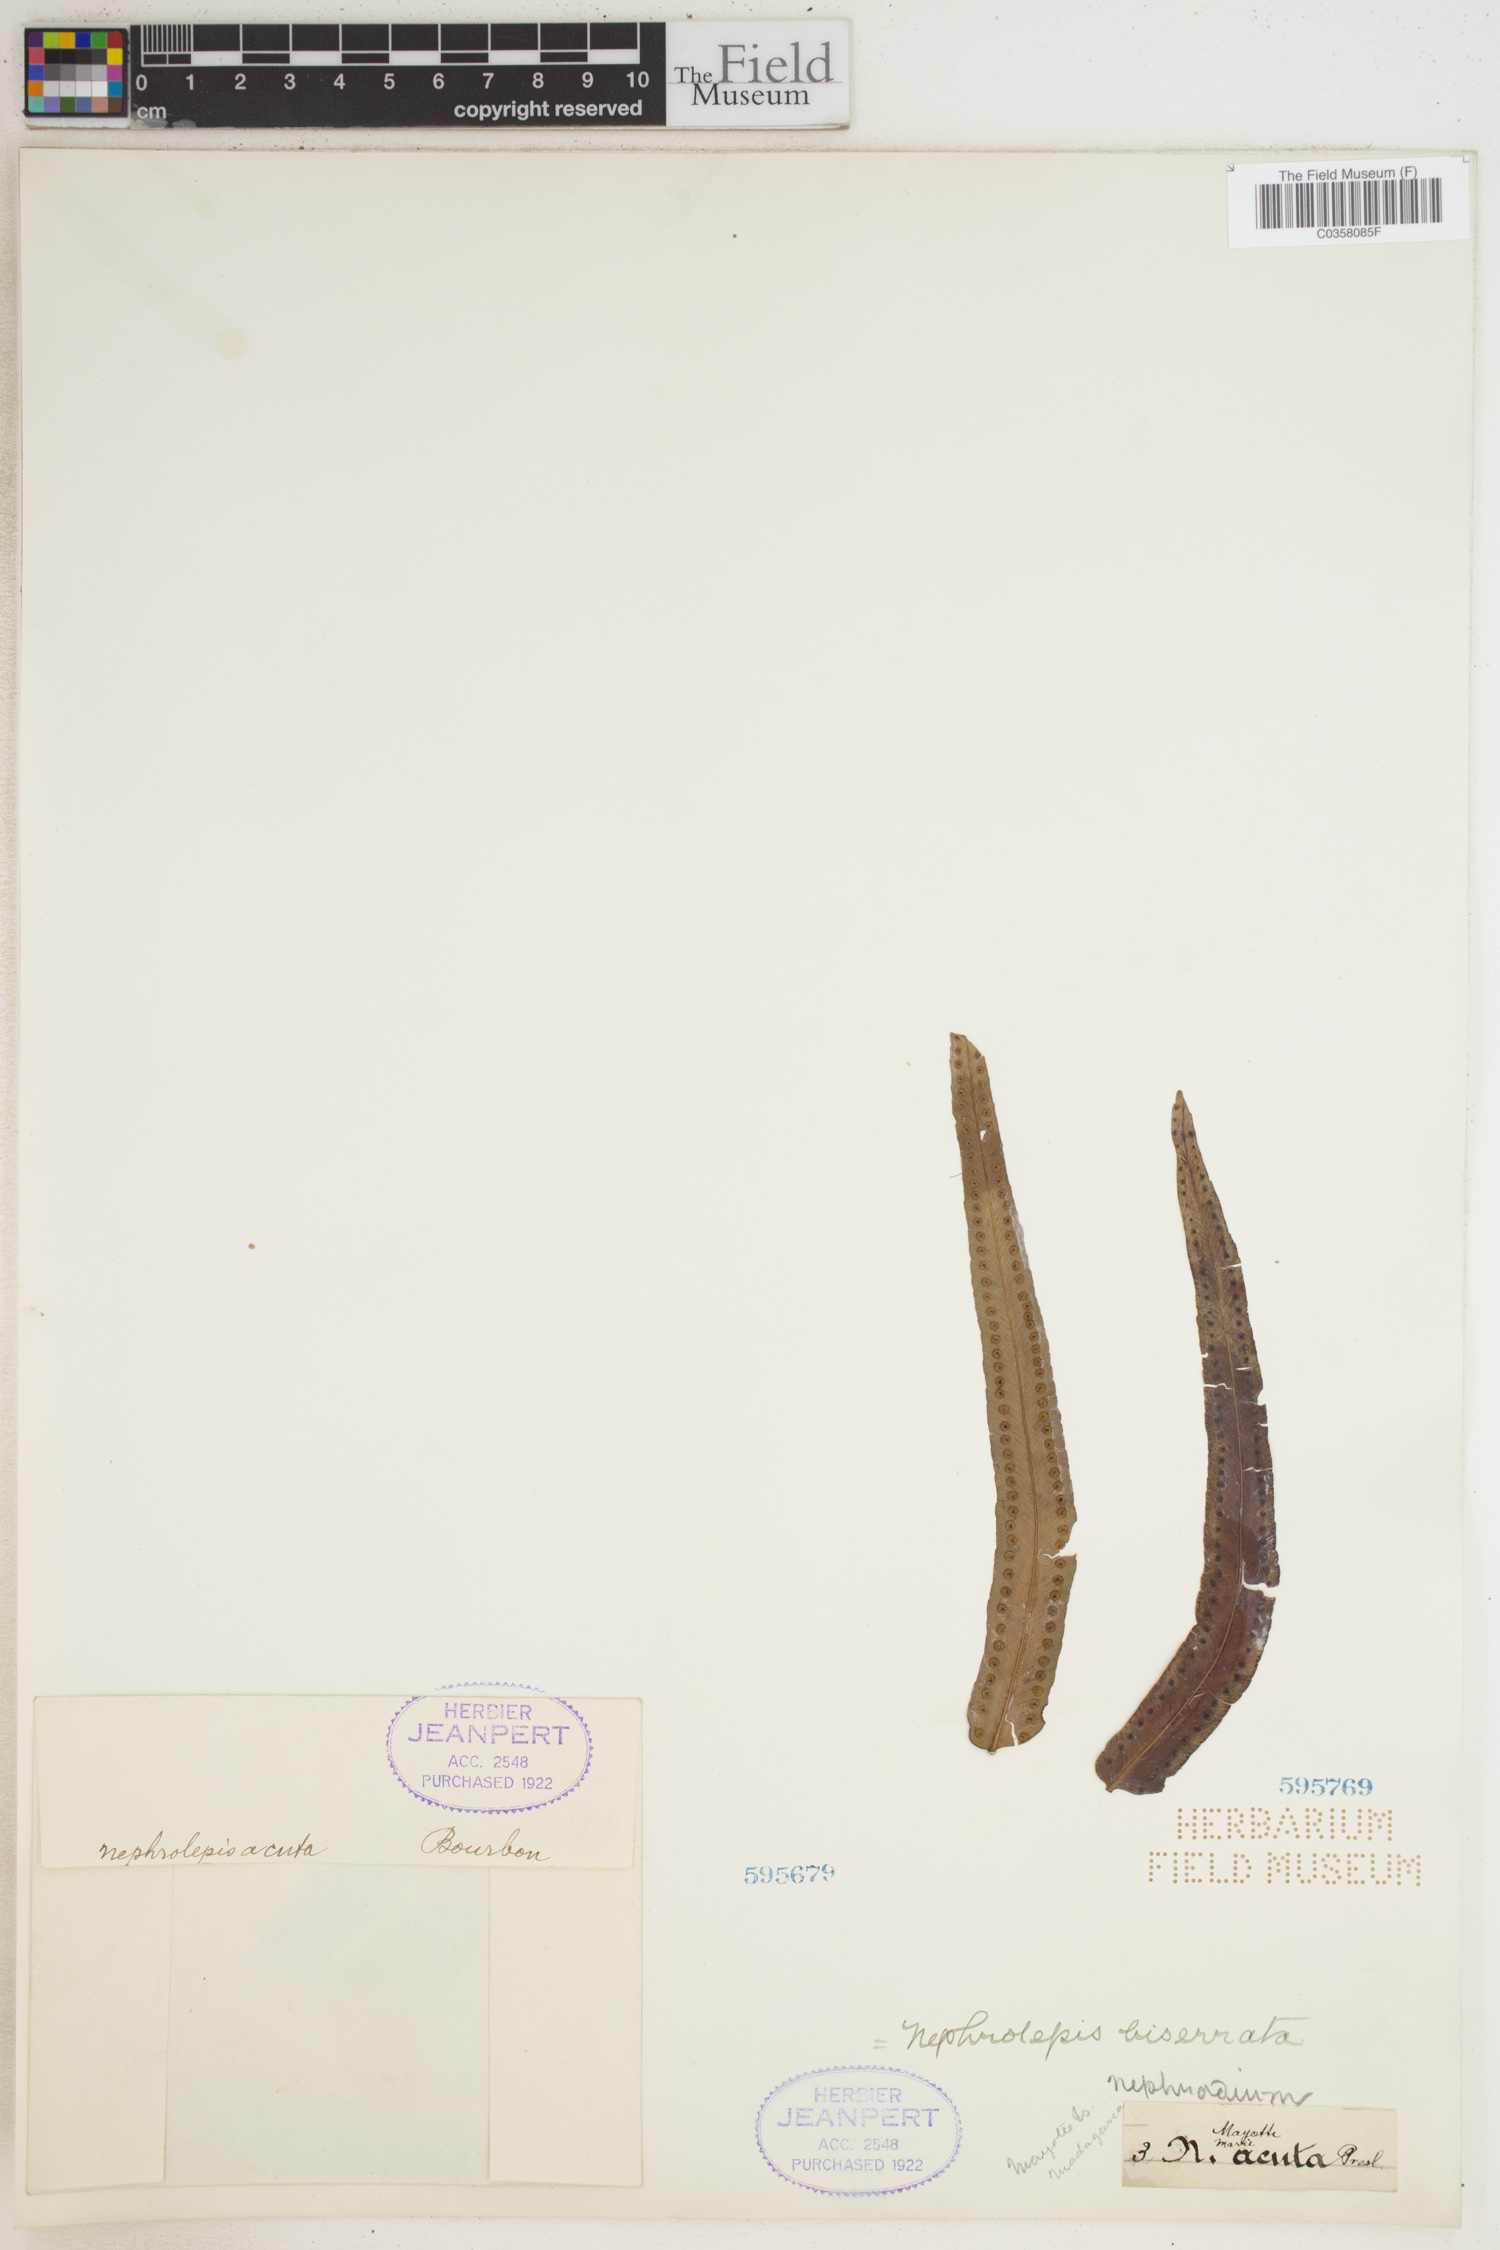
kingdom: Plantae
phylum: Tracheophyta
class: Polypodiopsida
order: Polypodiales
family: Nephrolepidaceae
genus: Nephrolepis
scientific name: Nephrolepis biserrata
